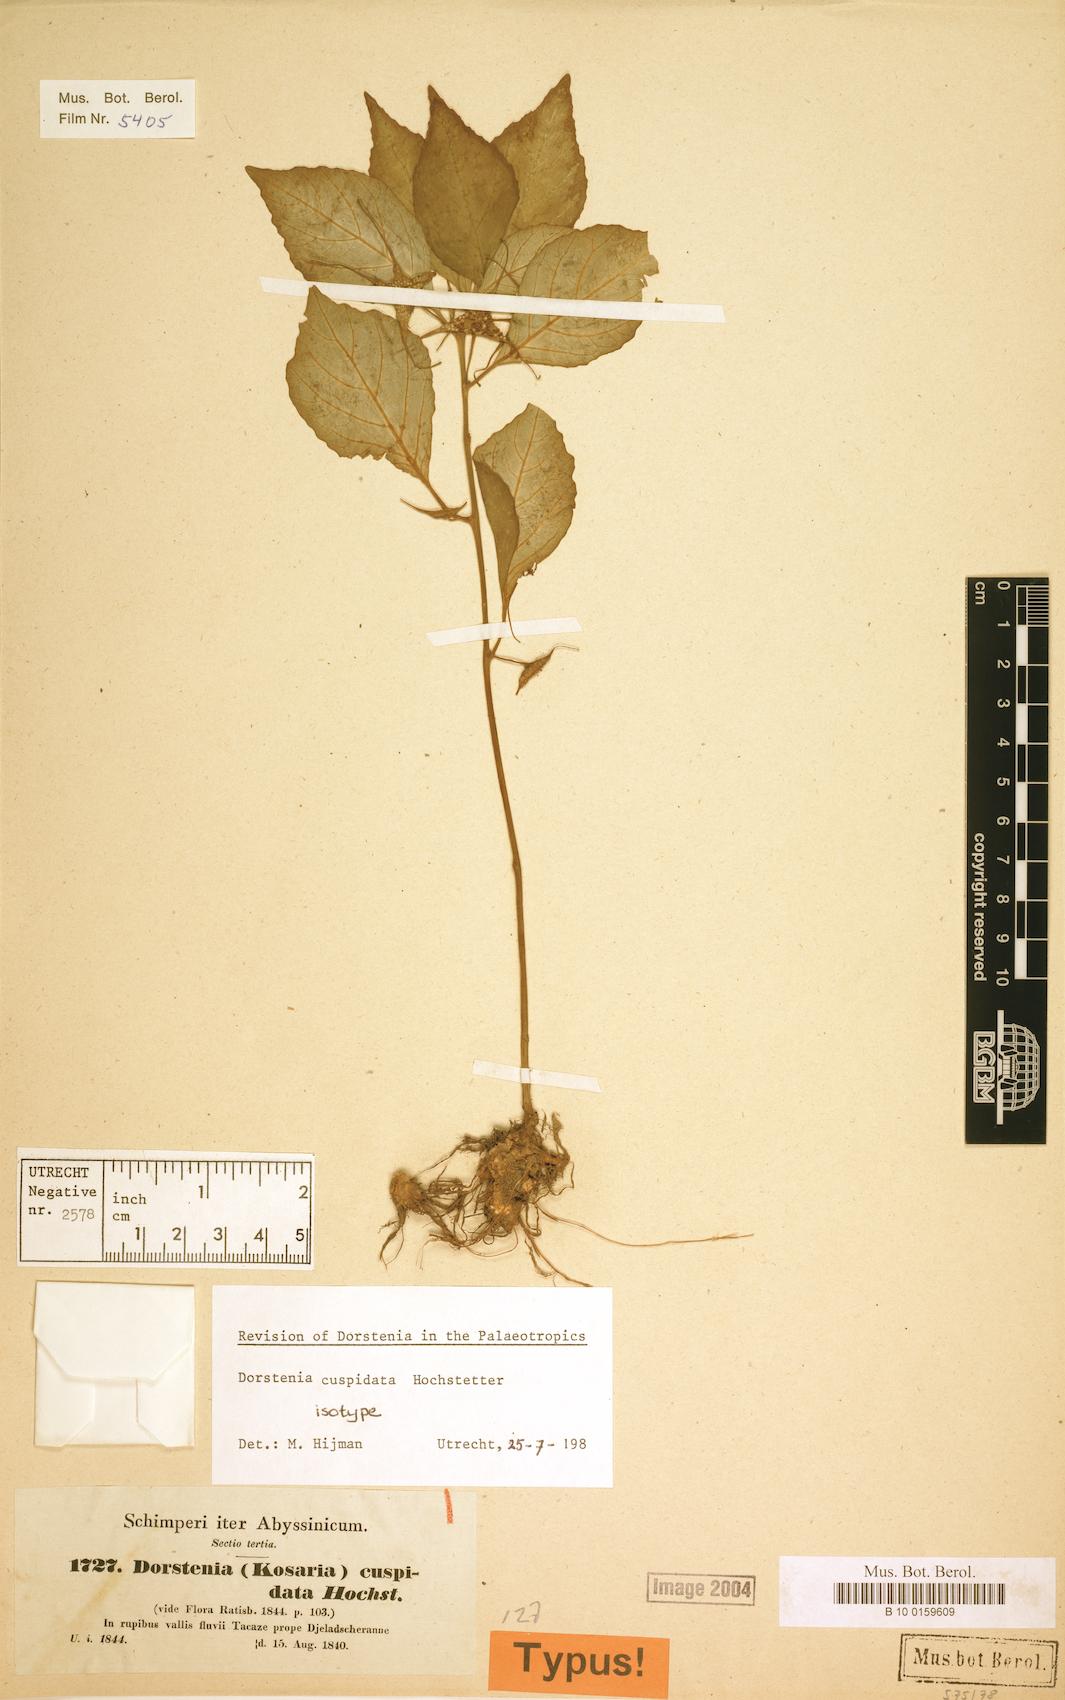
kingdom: Plantae
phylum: Tracheophyta
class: Magnoliopsida
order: Rosales
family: Moraceae
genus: Dorstenia
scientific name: Dorstenia cuspidata
